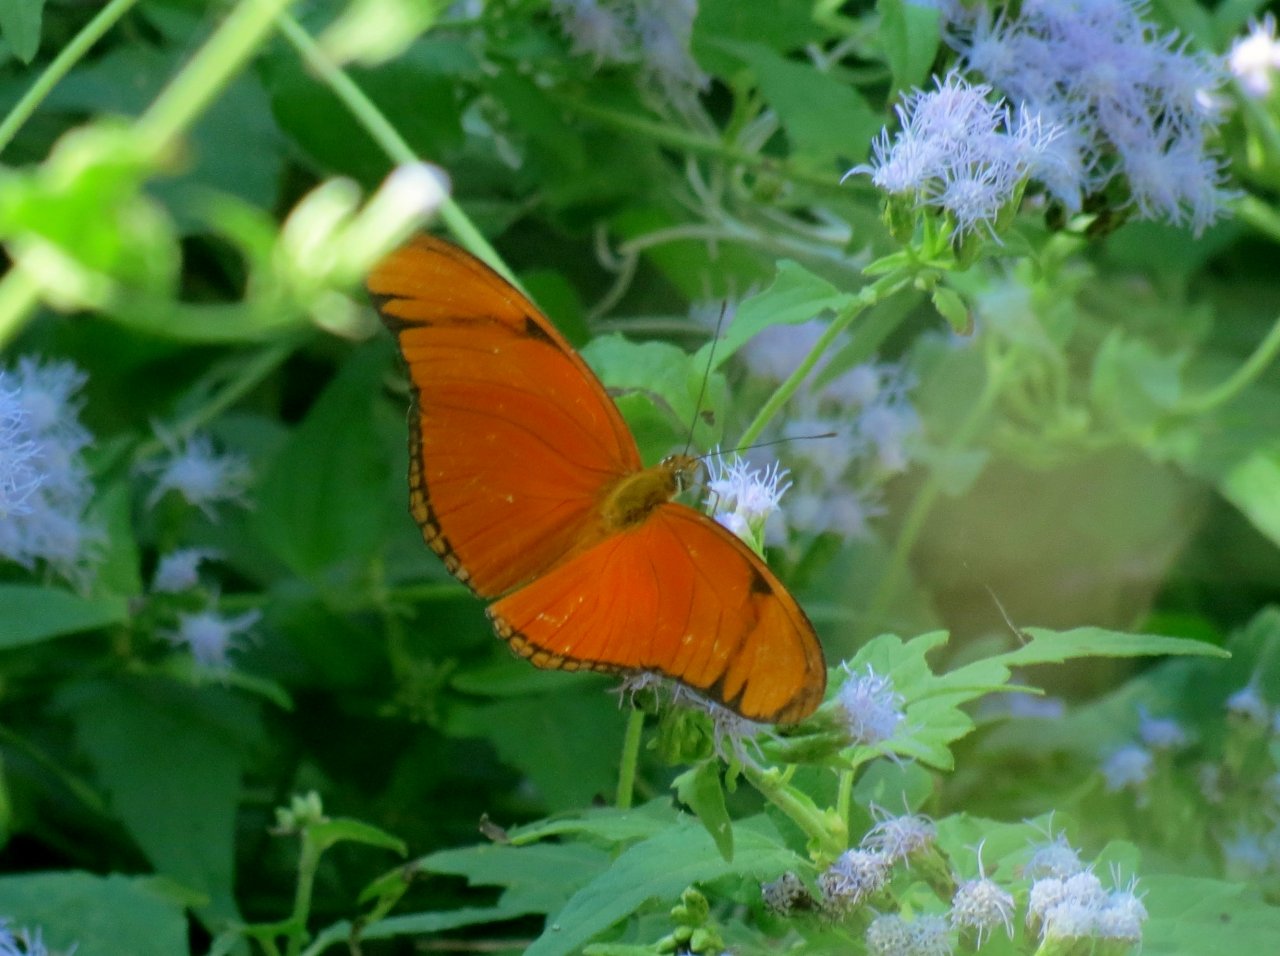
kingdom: Animalia
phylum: Arthropoda
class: Insecta
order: Lepidoptera
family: Nymphalidae
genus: Dryas
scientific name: Dryas iulia
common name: Julia
